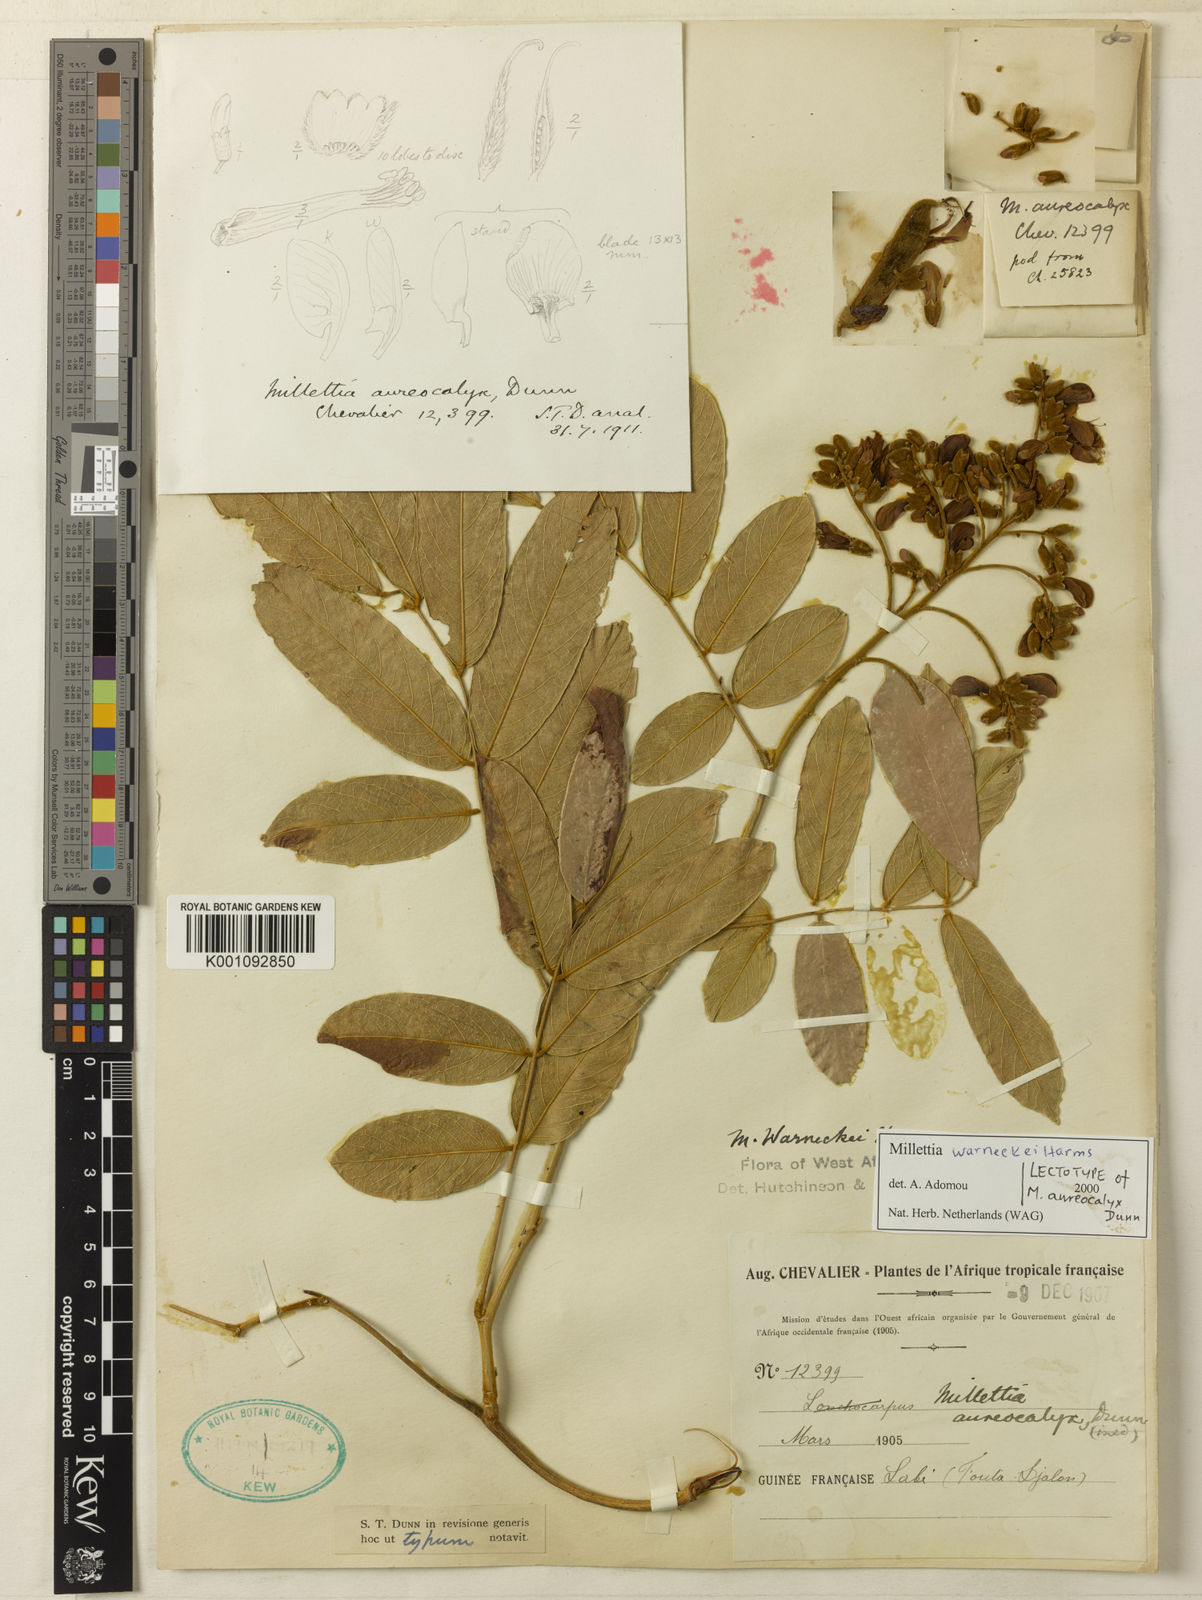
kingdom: Plantae
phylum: Tracheophyta
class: Magnoliopsida
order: Fabales
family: Fabaceae
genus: Millettia
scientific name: Millettia warneckei
